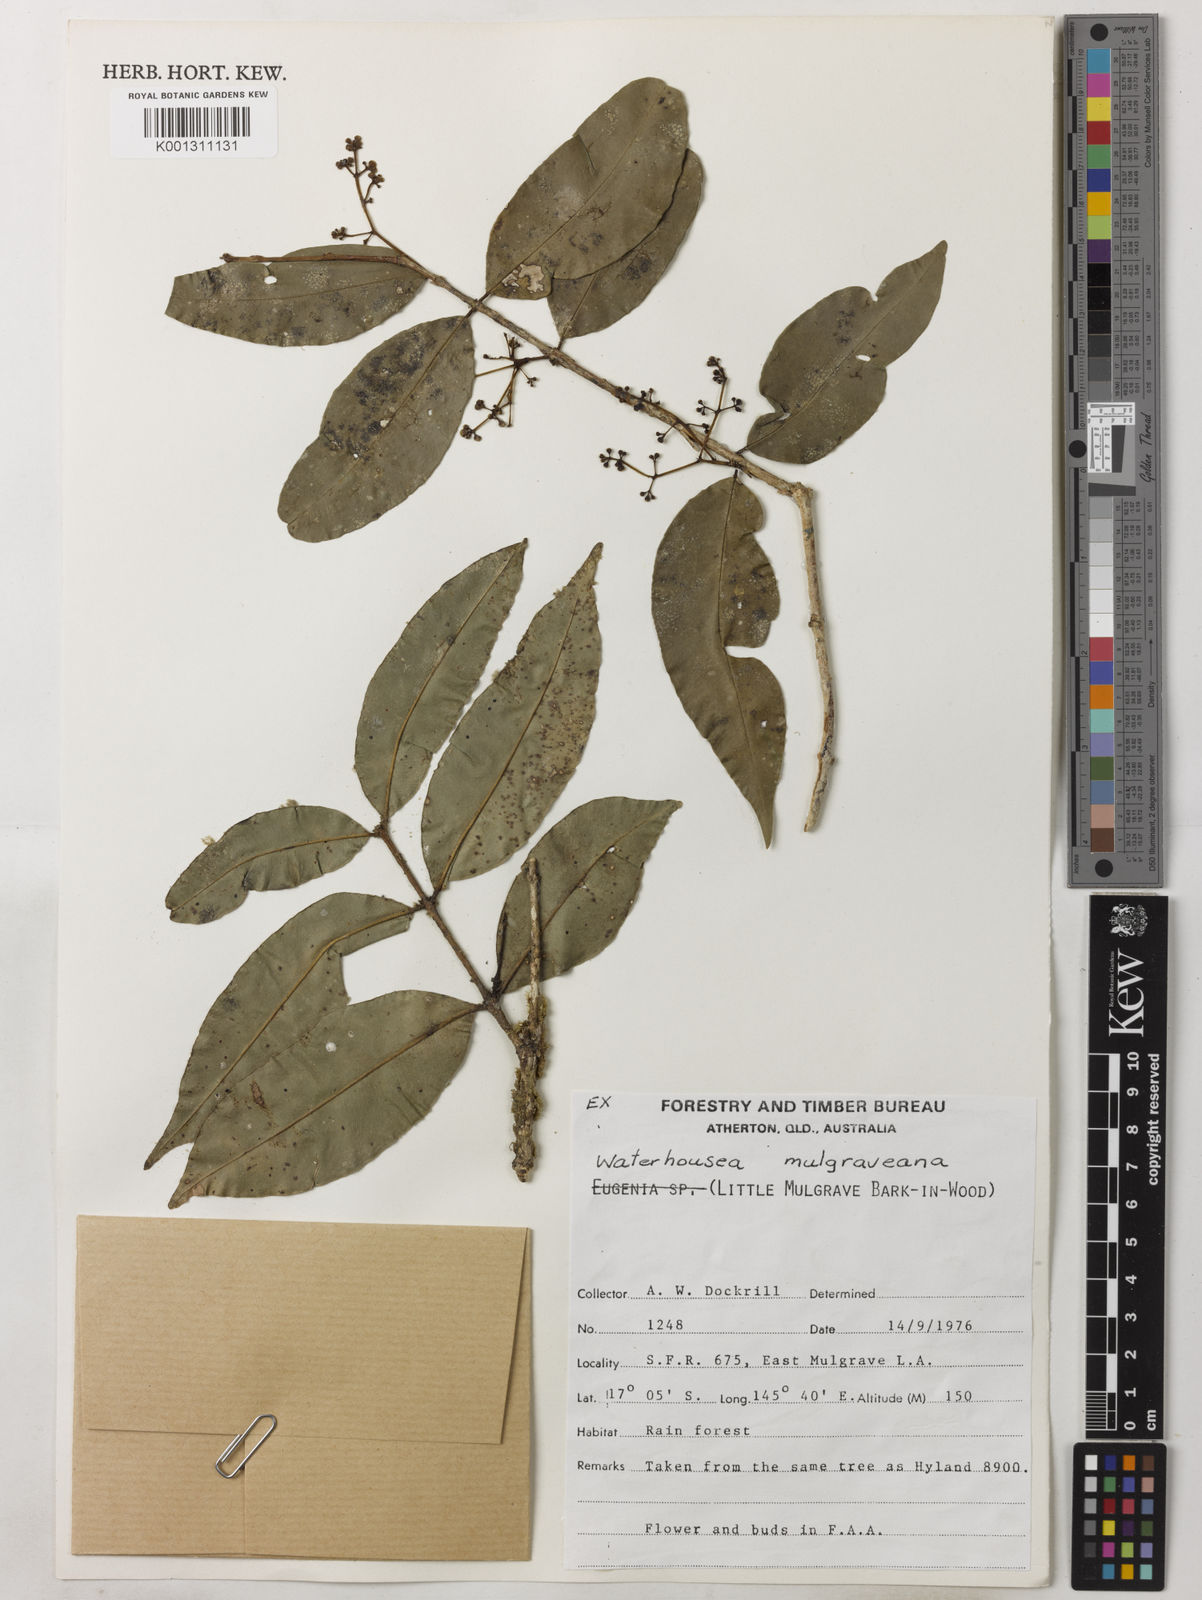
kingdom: Plantae
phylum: Tracheophyta
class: Magnoliopsida
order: Myrtales
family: Myrtaceae
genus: Syzygium
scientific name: Syzygium mulgraveanum
